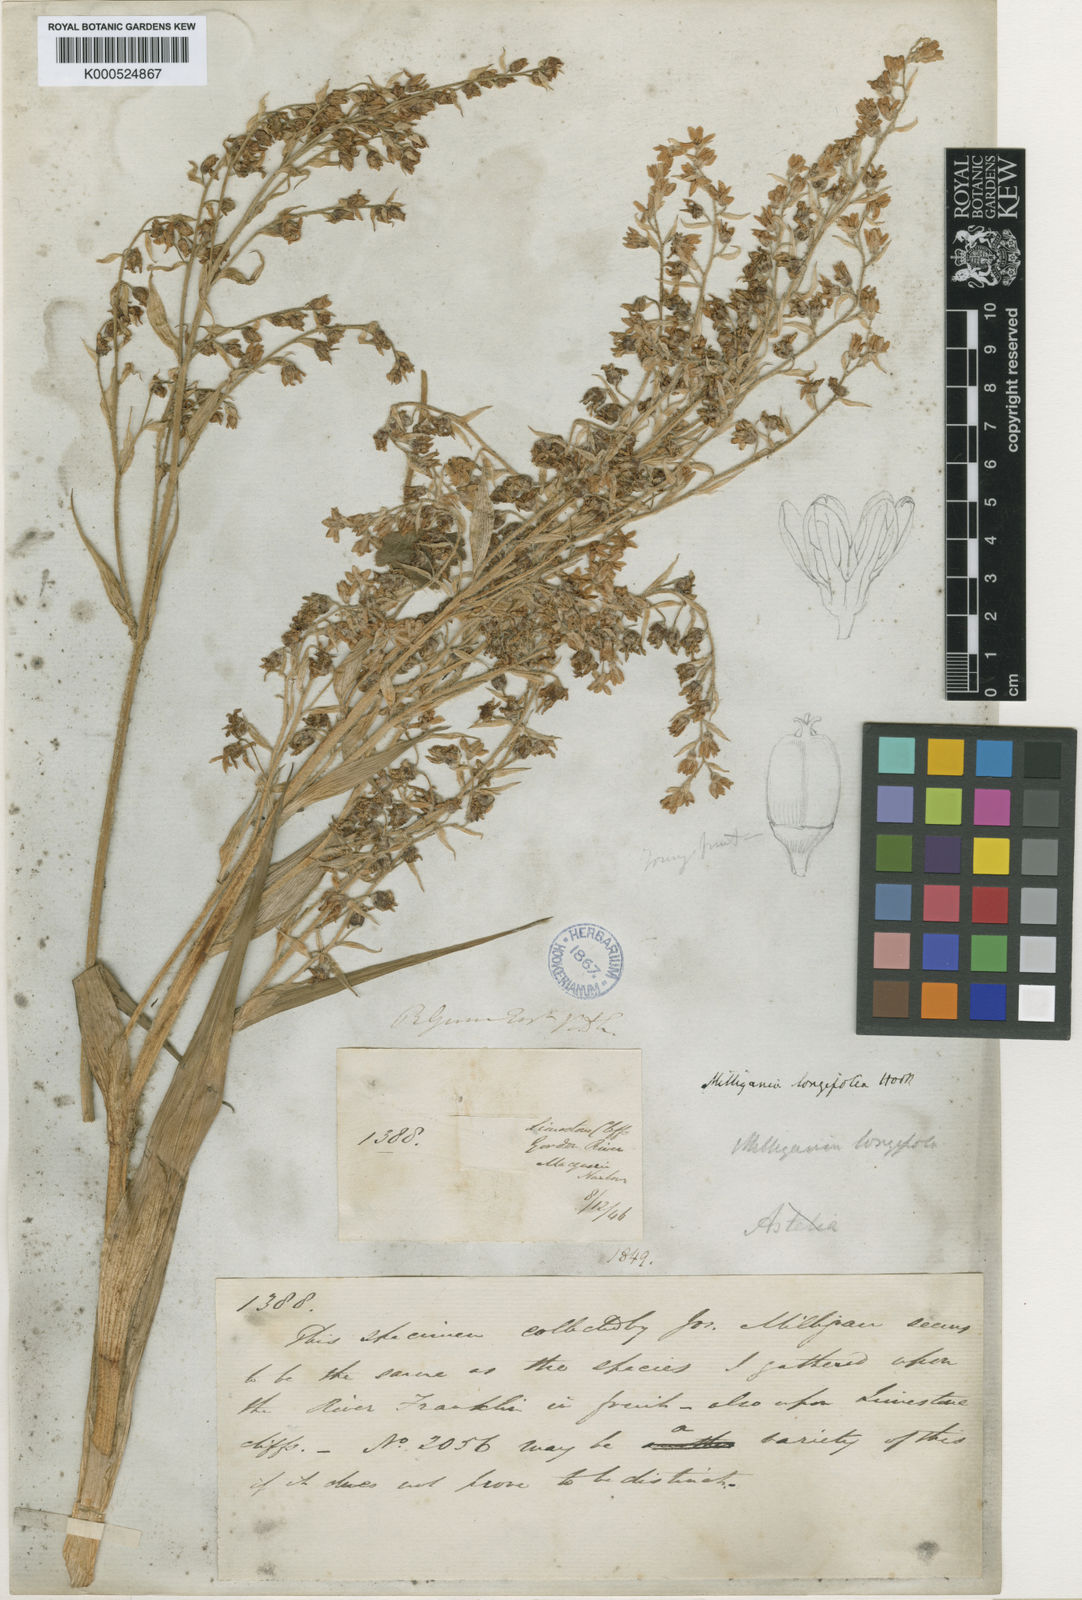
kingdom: Plantae
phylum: Tracheophyta
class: Liliopsida
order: Asparagales
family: Asteliaceae
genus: Milligania
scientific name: Milligania longifolia
